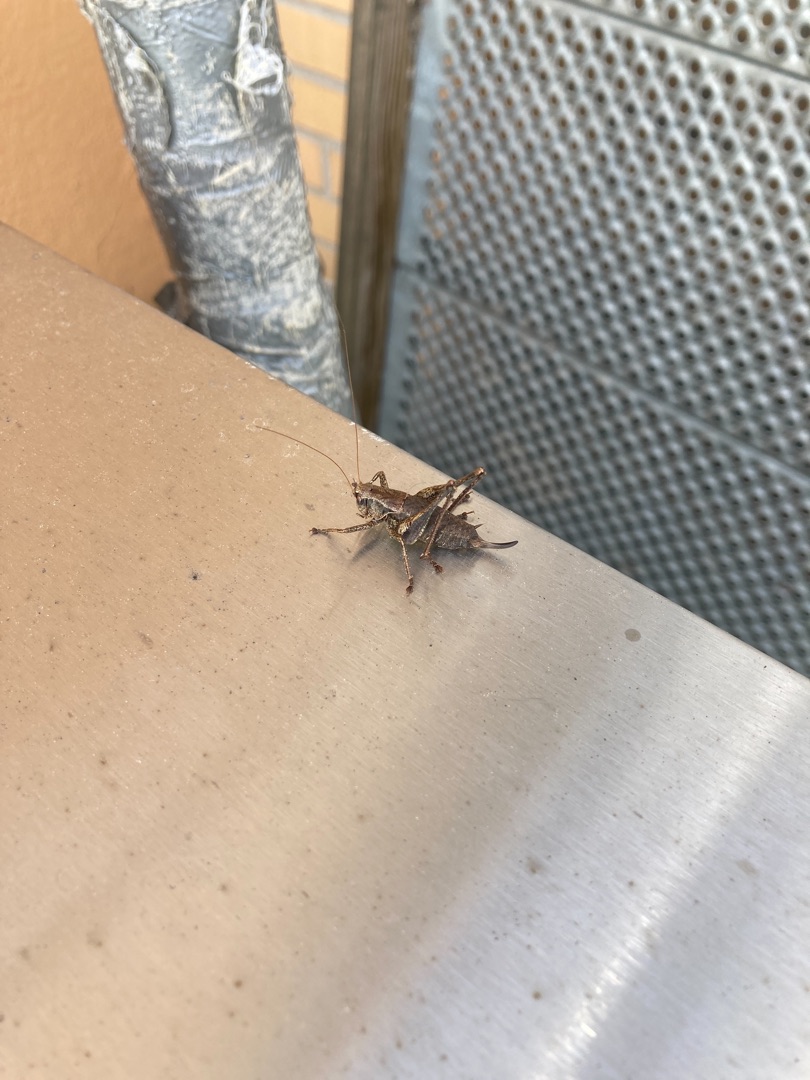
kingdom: Animalia
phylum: Arthropoda
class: Insecta
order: Orthoptera
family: Tettigoniidae
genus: Pholidoptera
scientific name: Pholidoptera griseoaptera
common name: Buskgræshoppe
